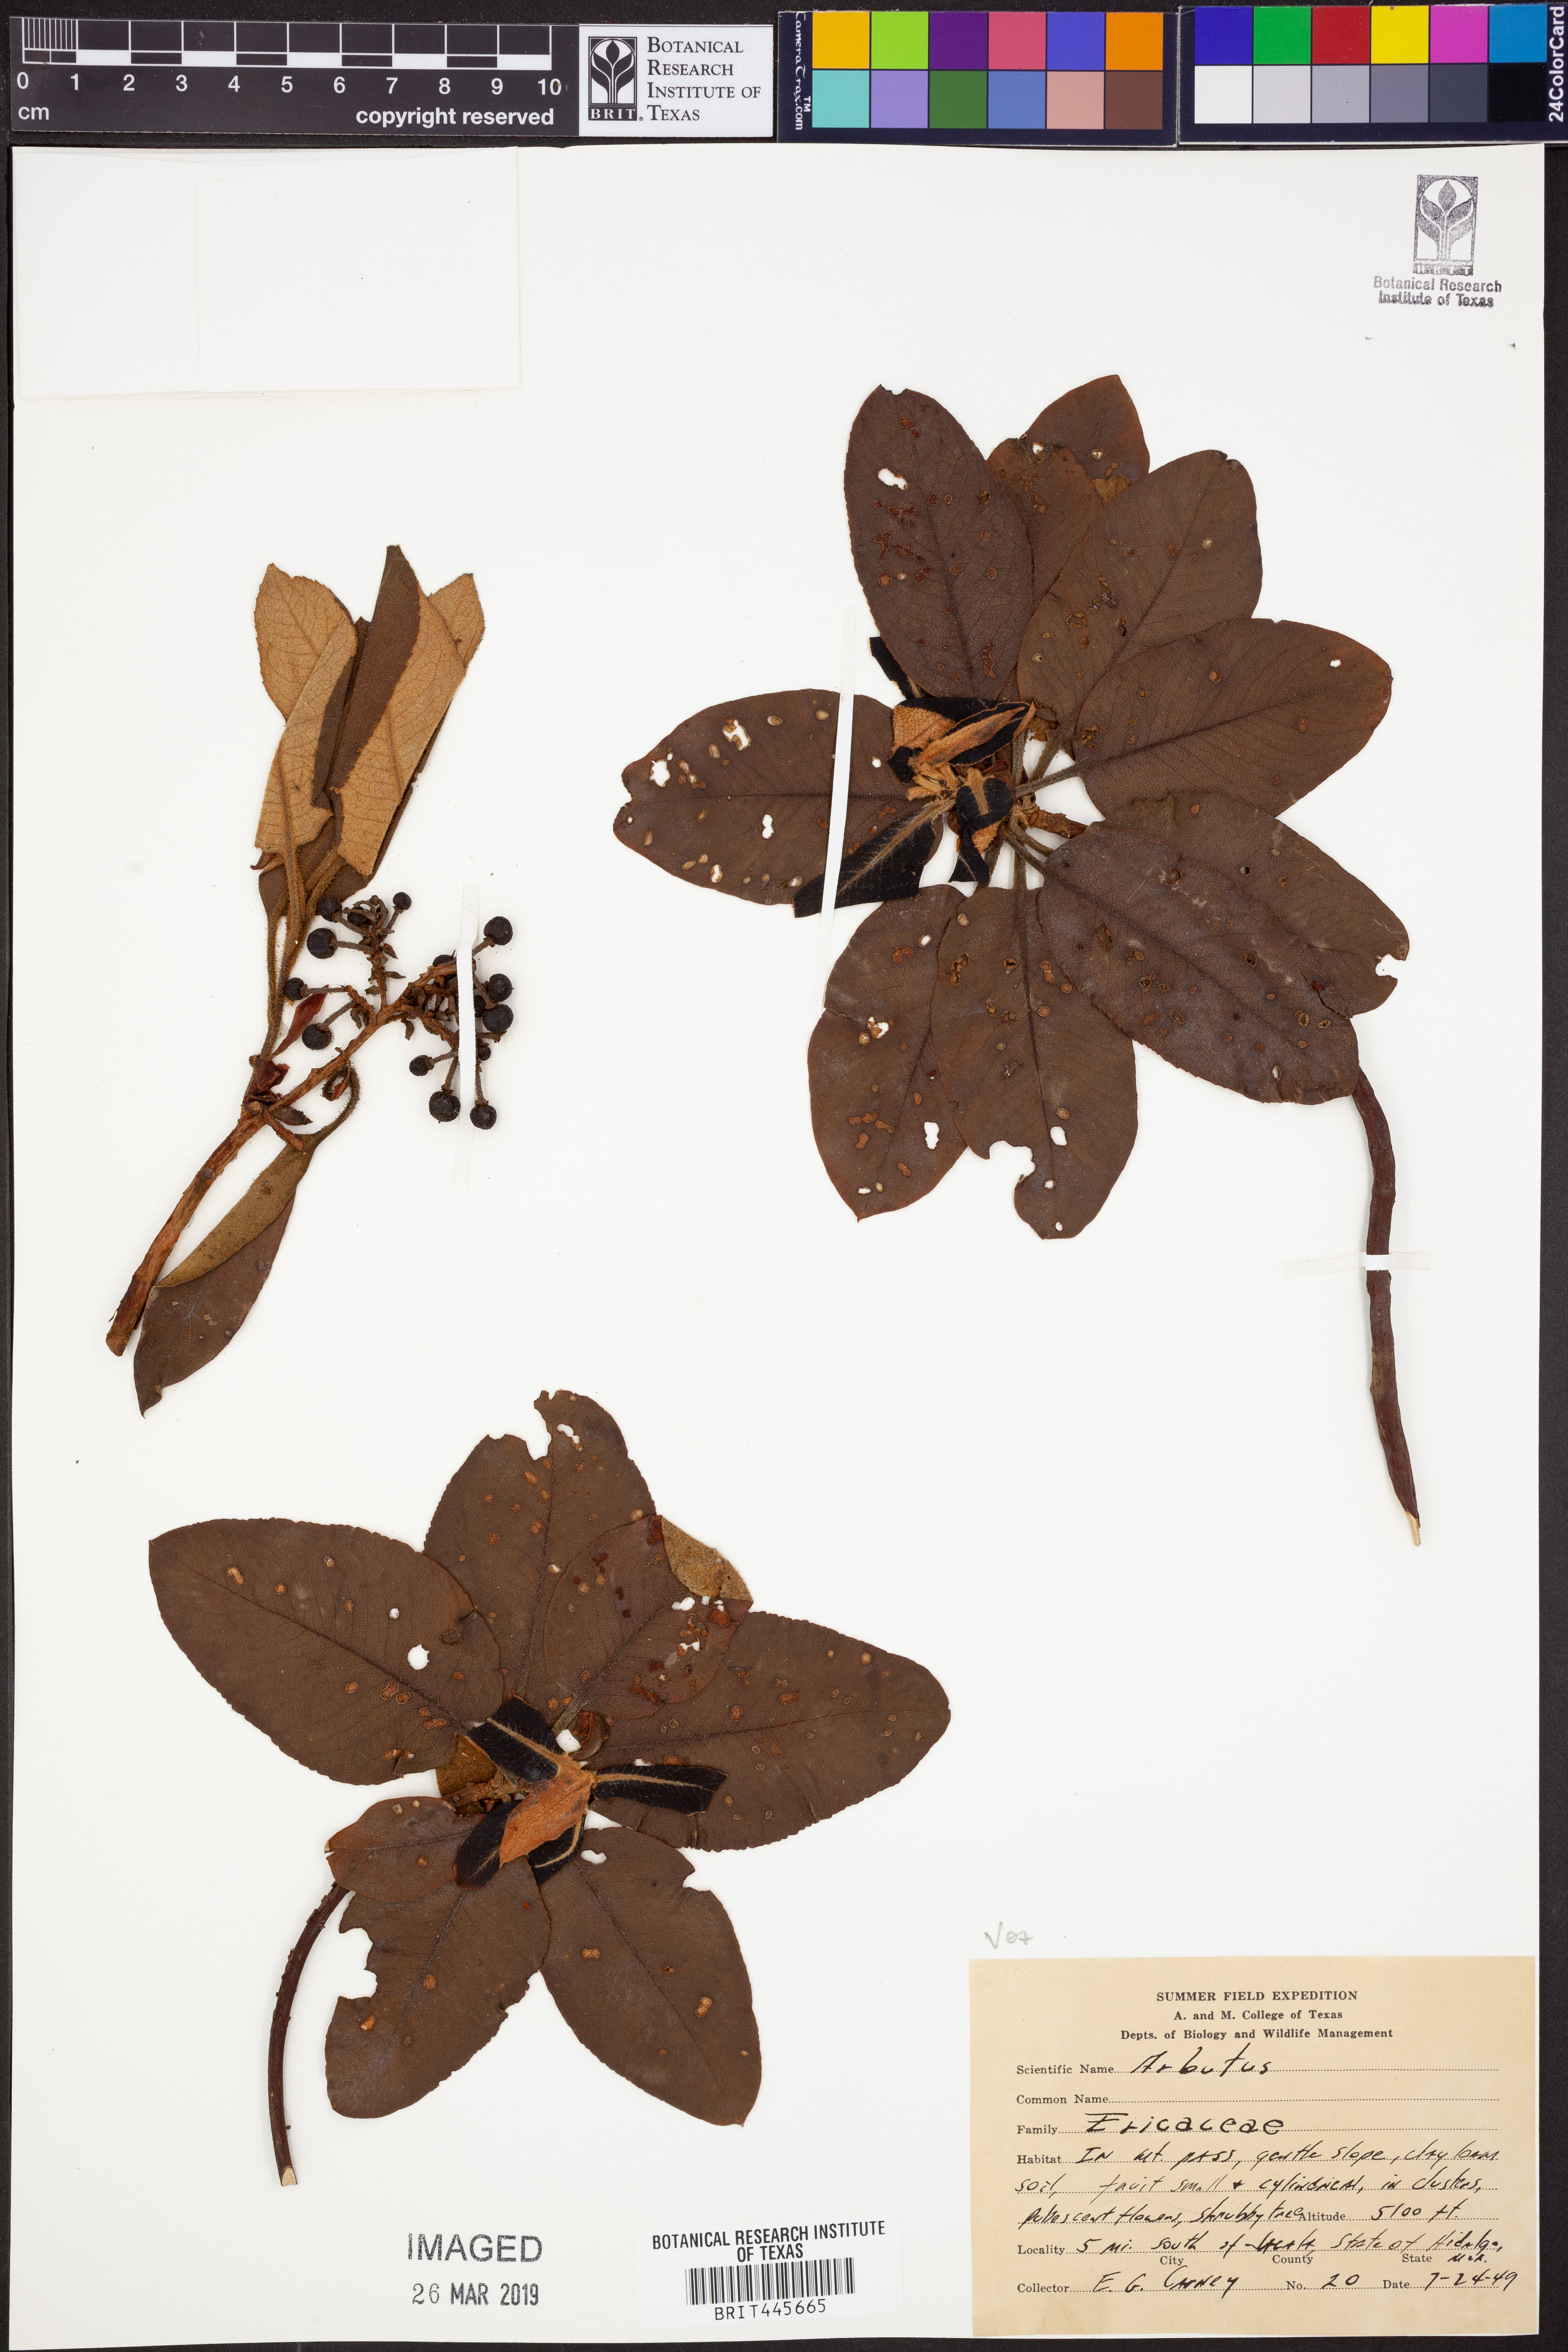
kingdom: Plantae
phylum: Tracheophyta
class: Magnoliopsida
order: Ericales
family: Ericaceae
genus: Arbutus
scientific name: Arbutus
